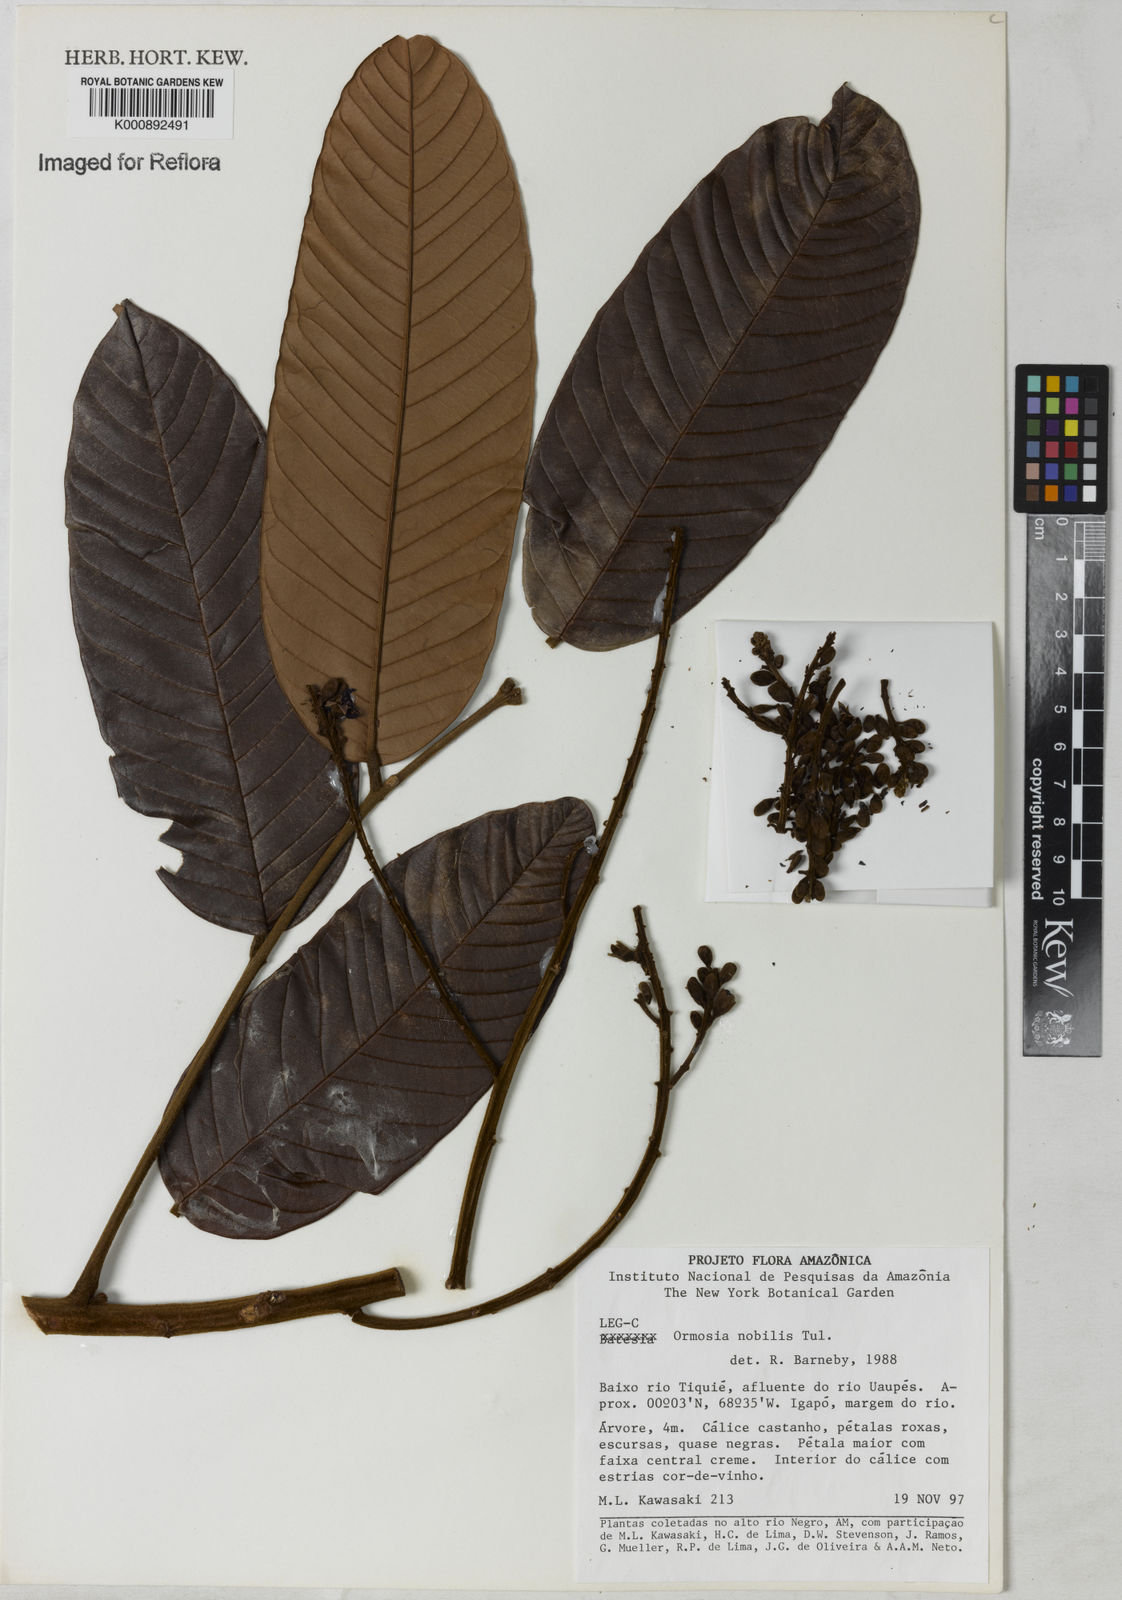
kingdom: Plantae
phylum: Tracheophyta
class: Magnoliopsida
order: Fabales
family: Fabaceae
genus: Ormosia
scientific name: Ormosia coccinea
